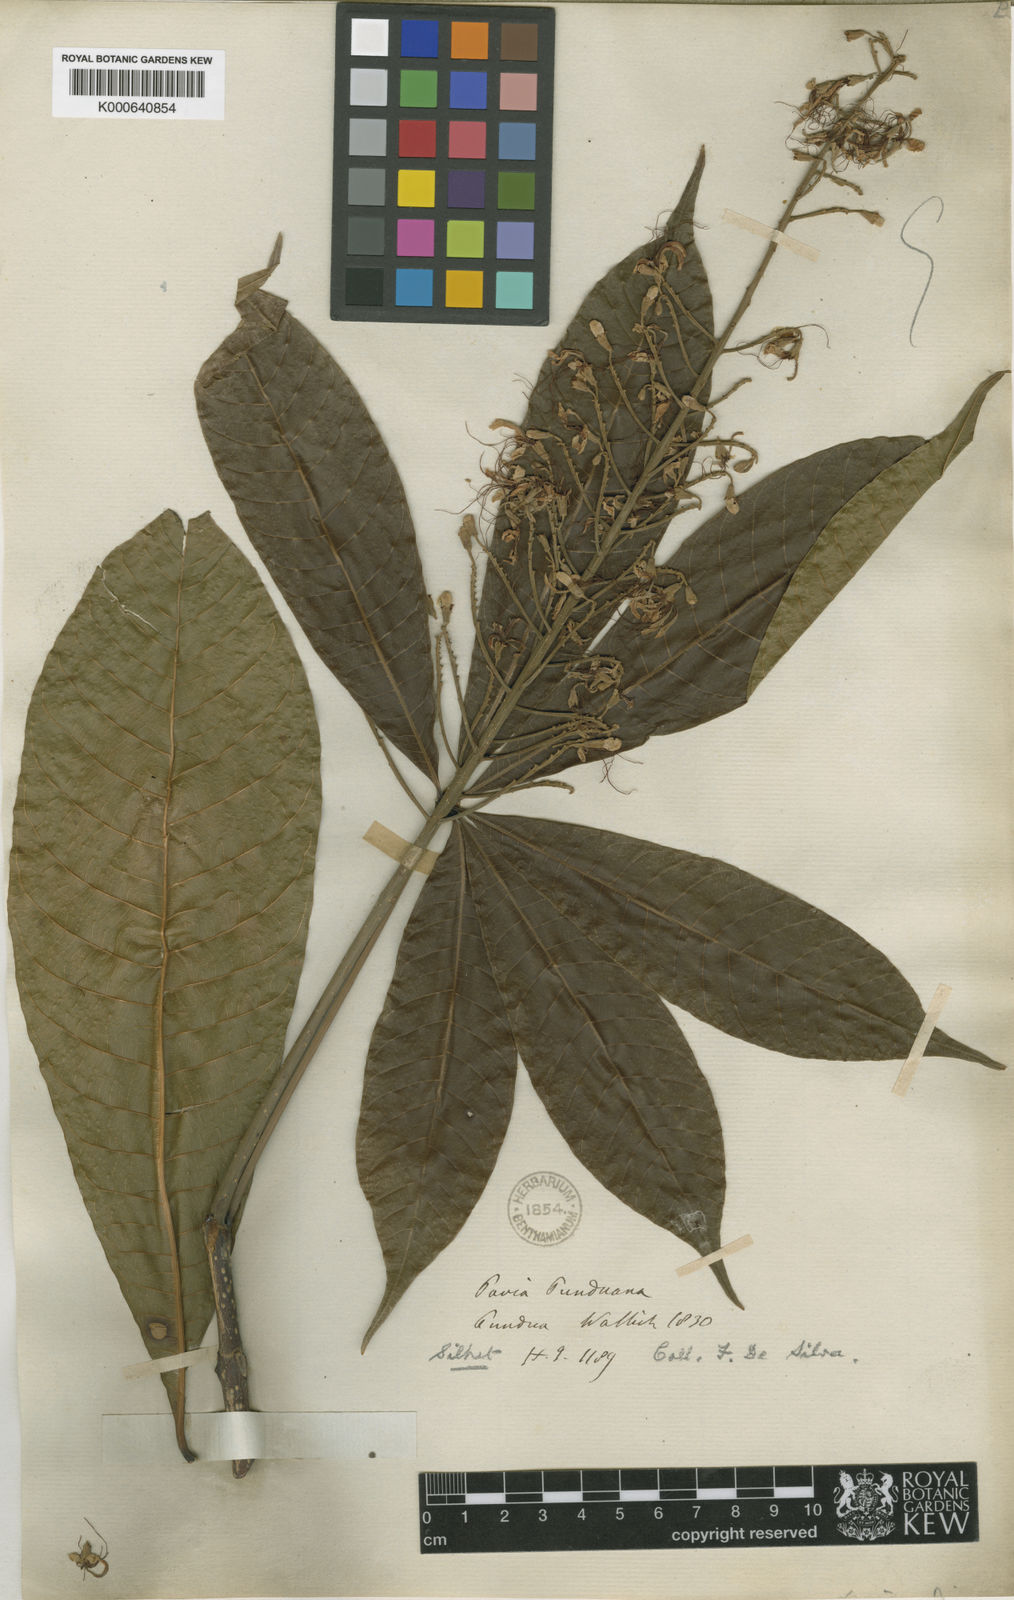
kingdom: Plantae
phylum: Tracheophyta
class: Magnoliopsida
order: Sapindales
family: Sapindaceae
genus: Aesculus
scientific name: Aesculus assamica
